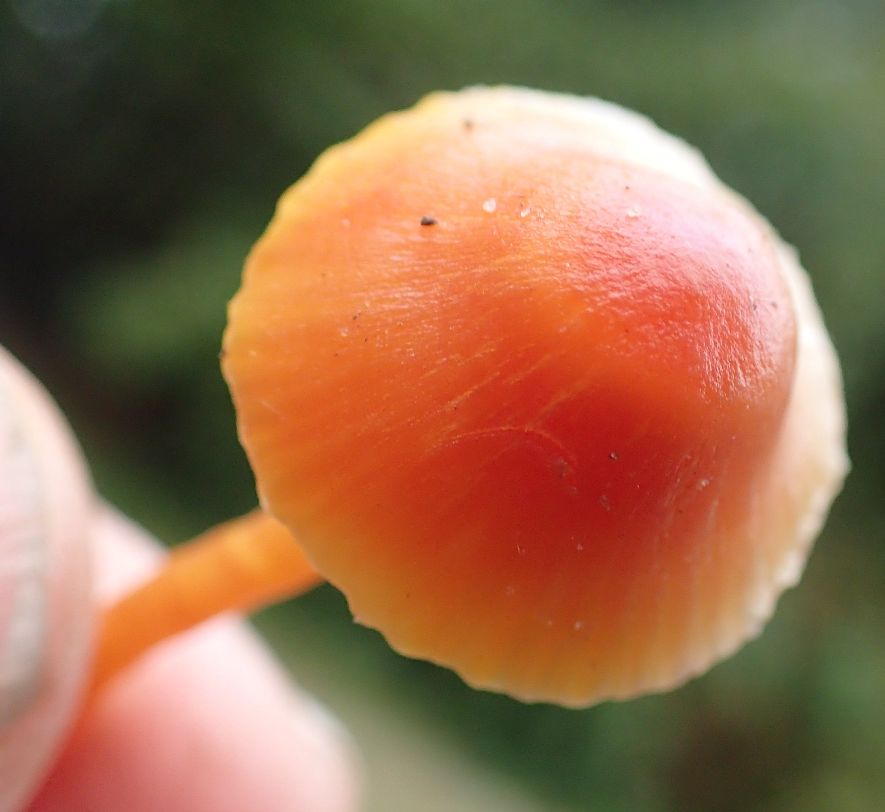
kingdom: Fungi
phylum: Basidiomycota
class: Agaricomycetes
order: Agaricales
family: Hygrophoraceae
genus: Hygrocybe
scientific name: Hygrocybe mucronella
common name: bitter vokshat
